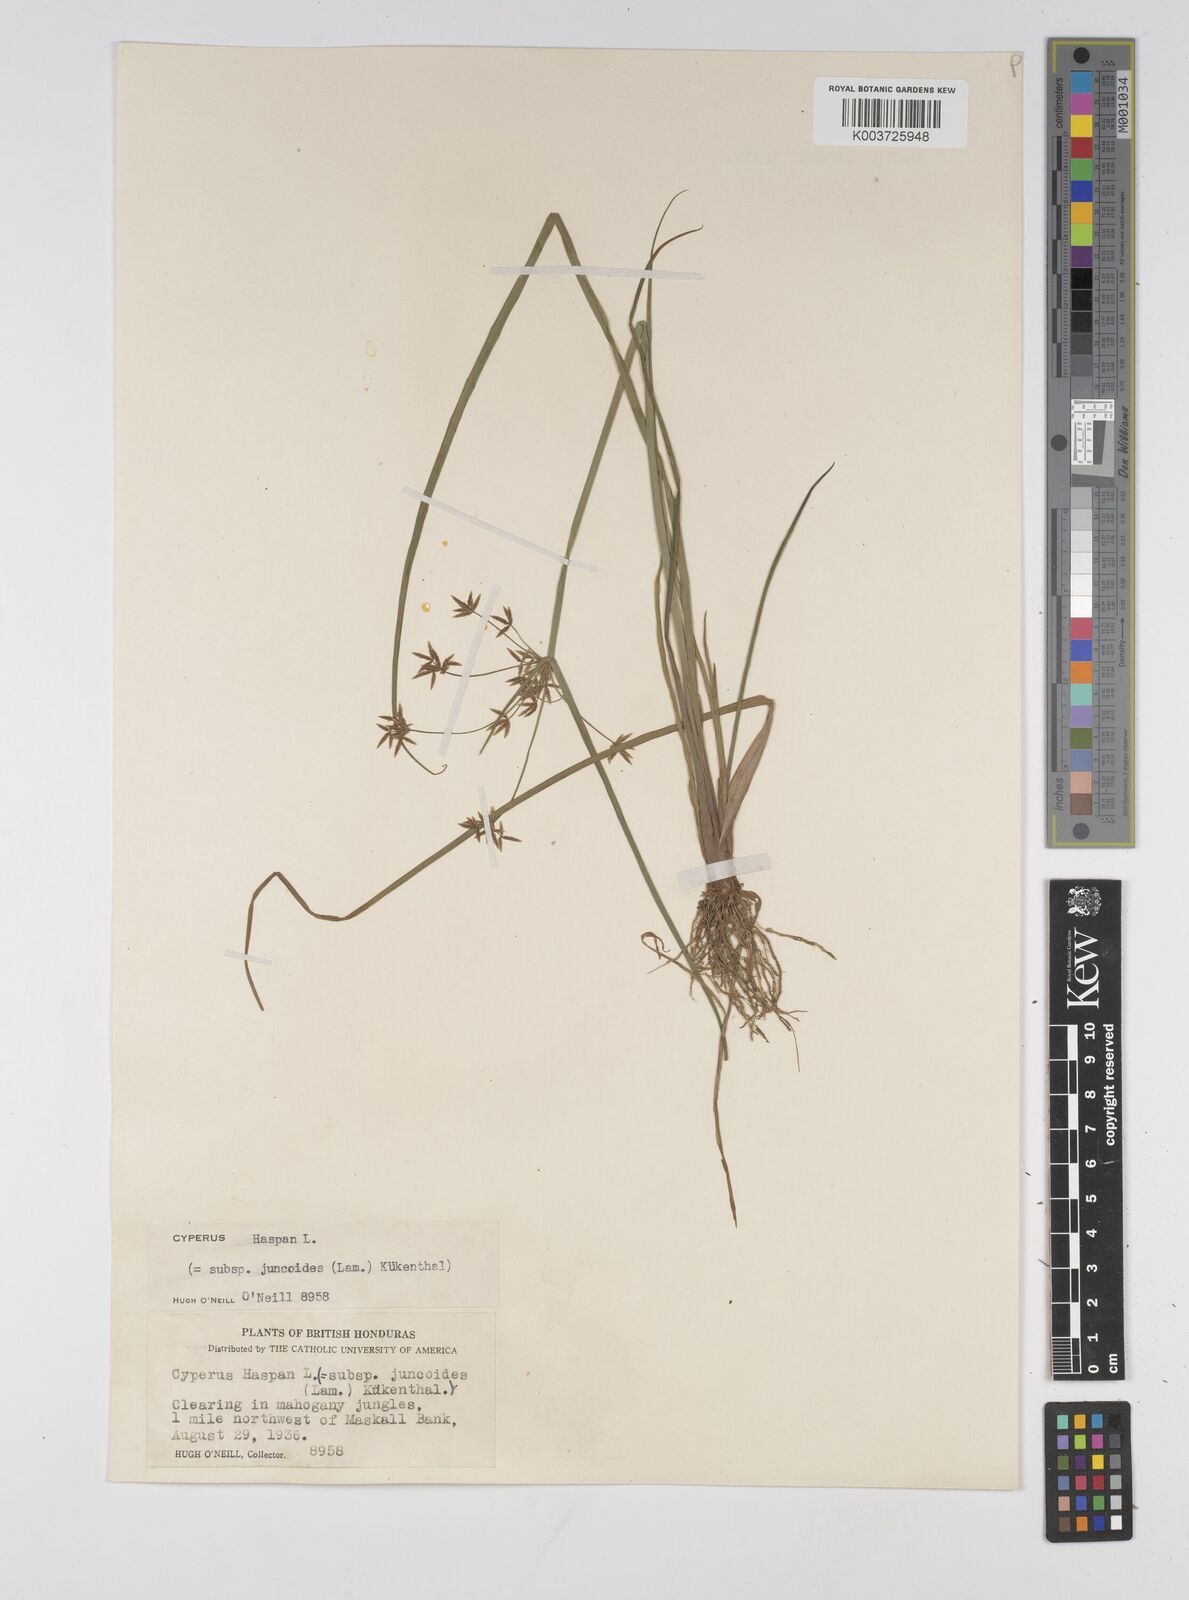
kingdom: Plantae
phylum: Tracheophyta
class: Liliopsida
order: Poales
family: Cyperaceae
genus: Cyperus
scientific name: Cyperus haspan
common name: Haspan flatsedge
